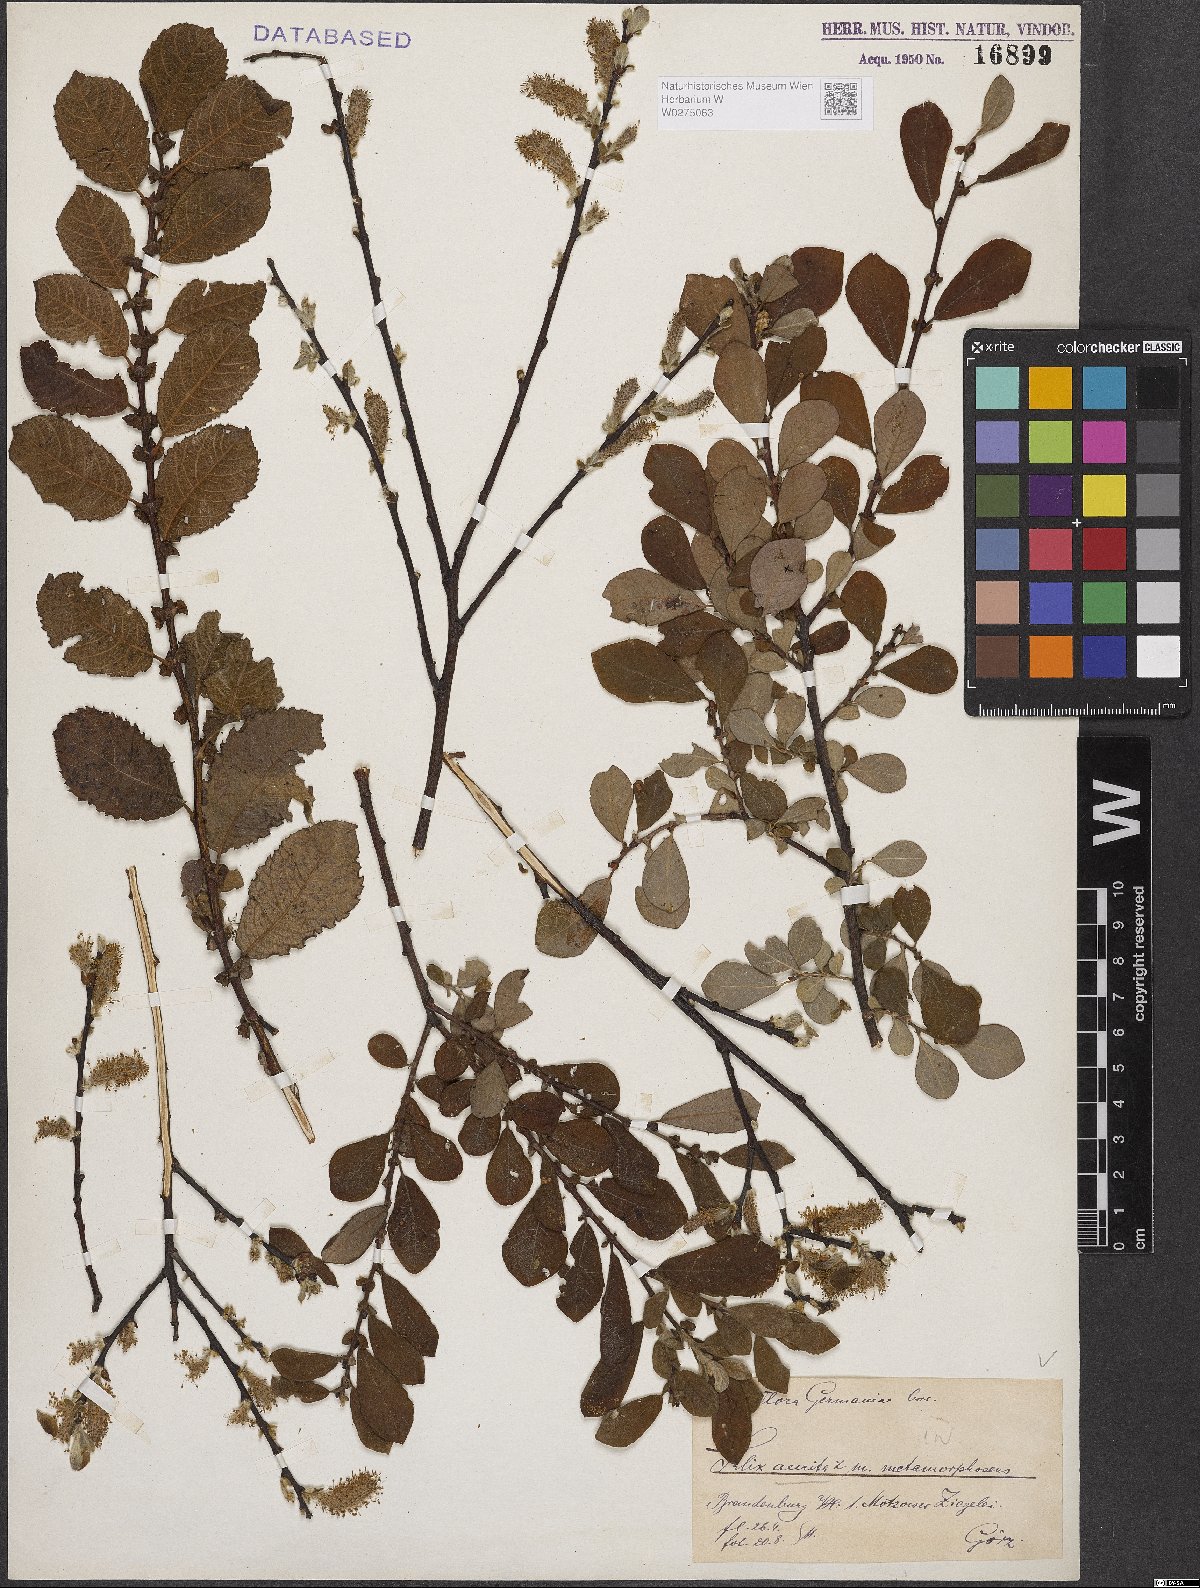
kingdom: Plantae
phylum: Tracheophyta
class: Magnoliopsida
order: Malpighiales
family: Salicaceae
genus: Salix
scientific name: Salix aurita
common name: Eared willow
